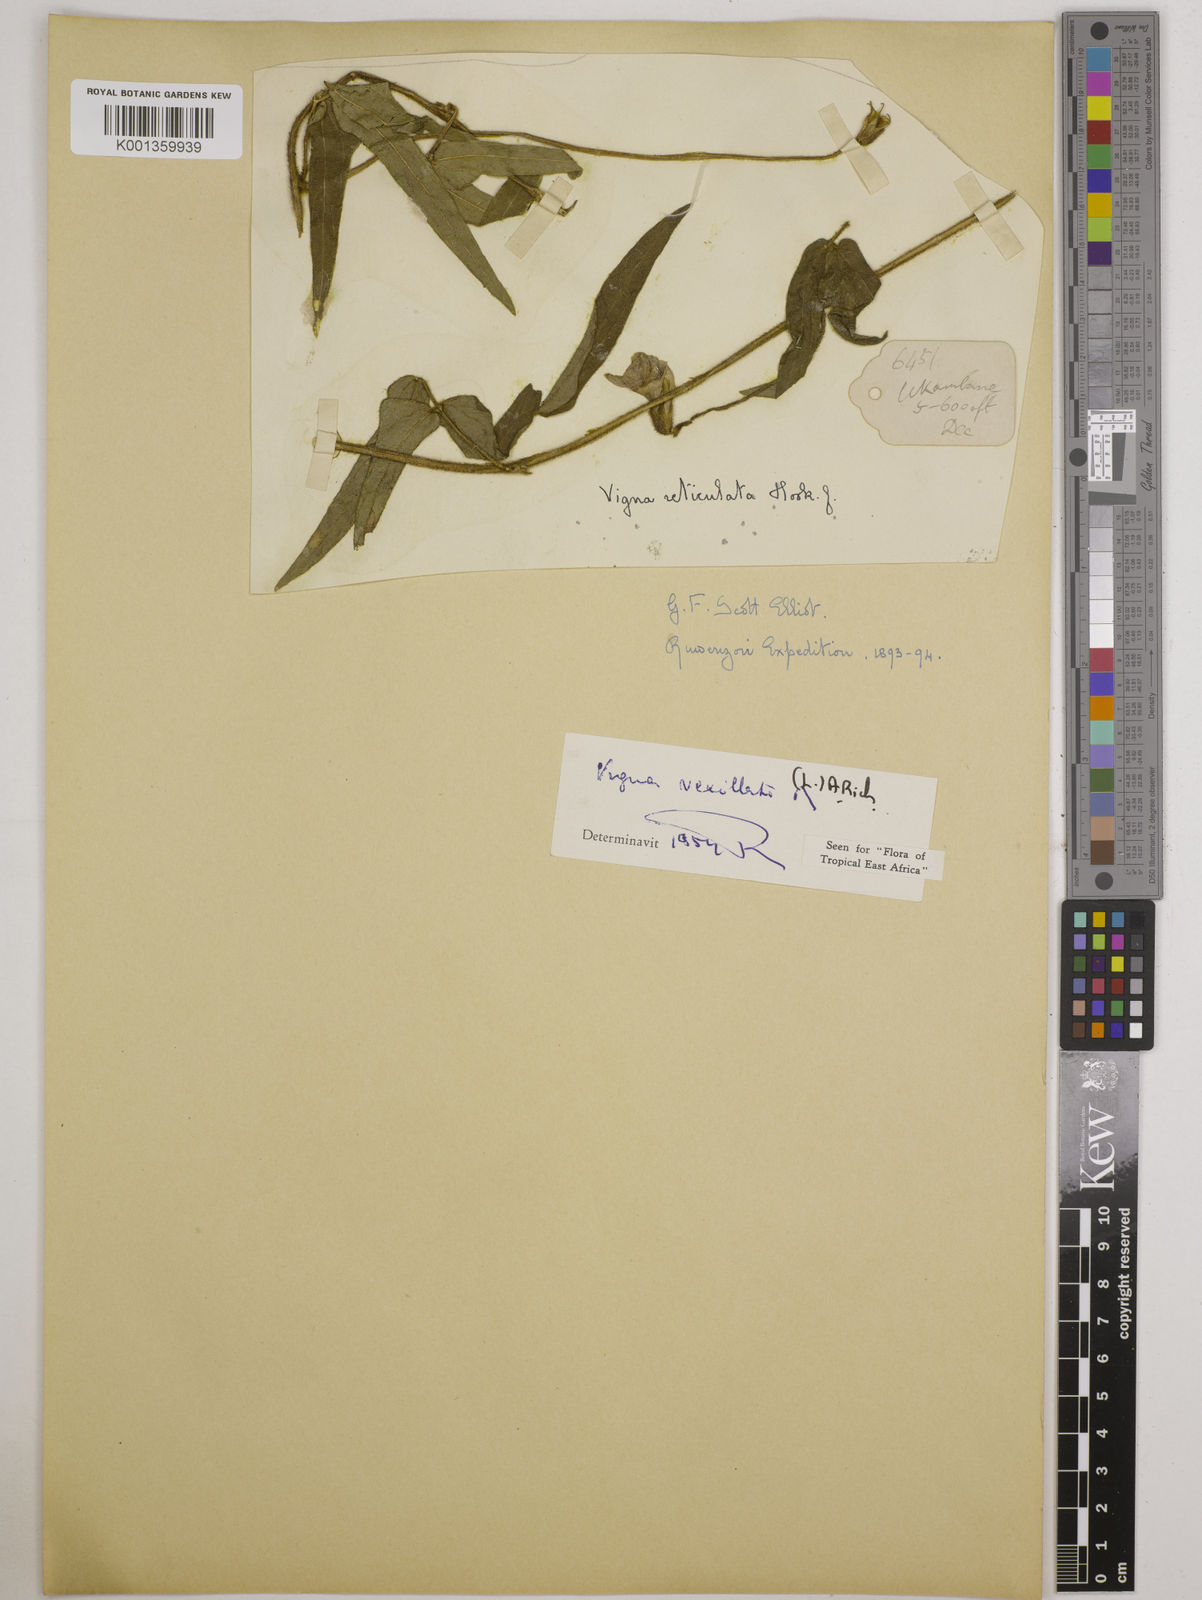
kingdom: Plantae
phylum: Tracheophyta
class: Magnoliopsida
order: Fabales
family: Fabaceae
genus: Vigna
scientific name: Vigna vexillata
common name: Zombi pea
